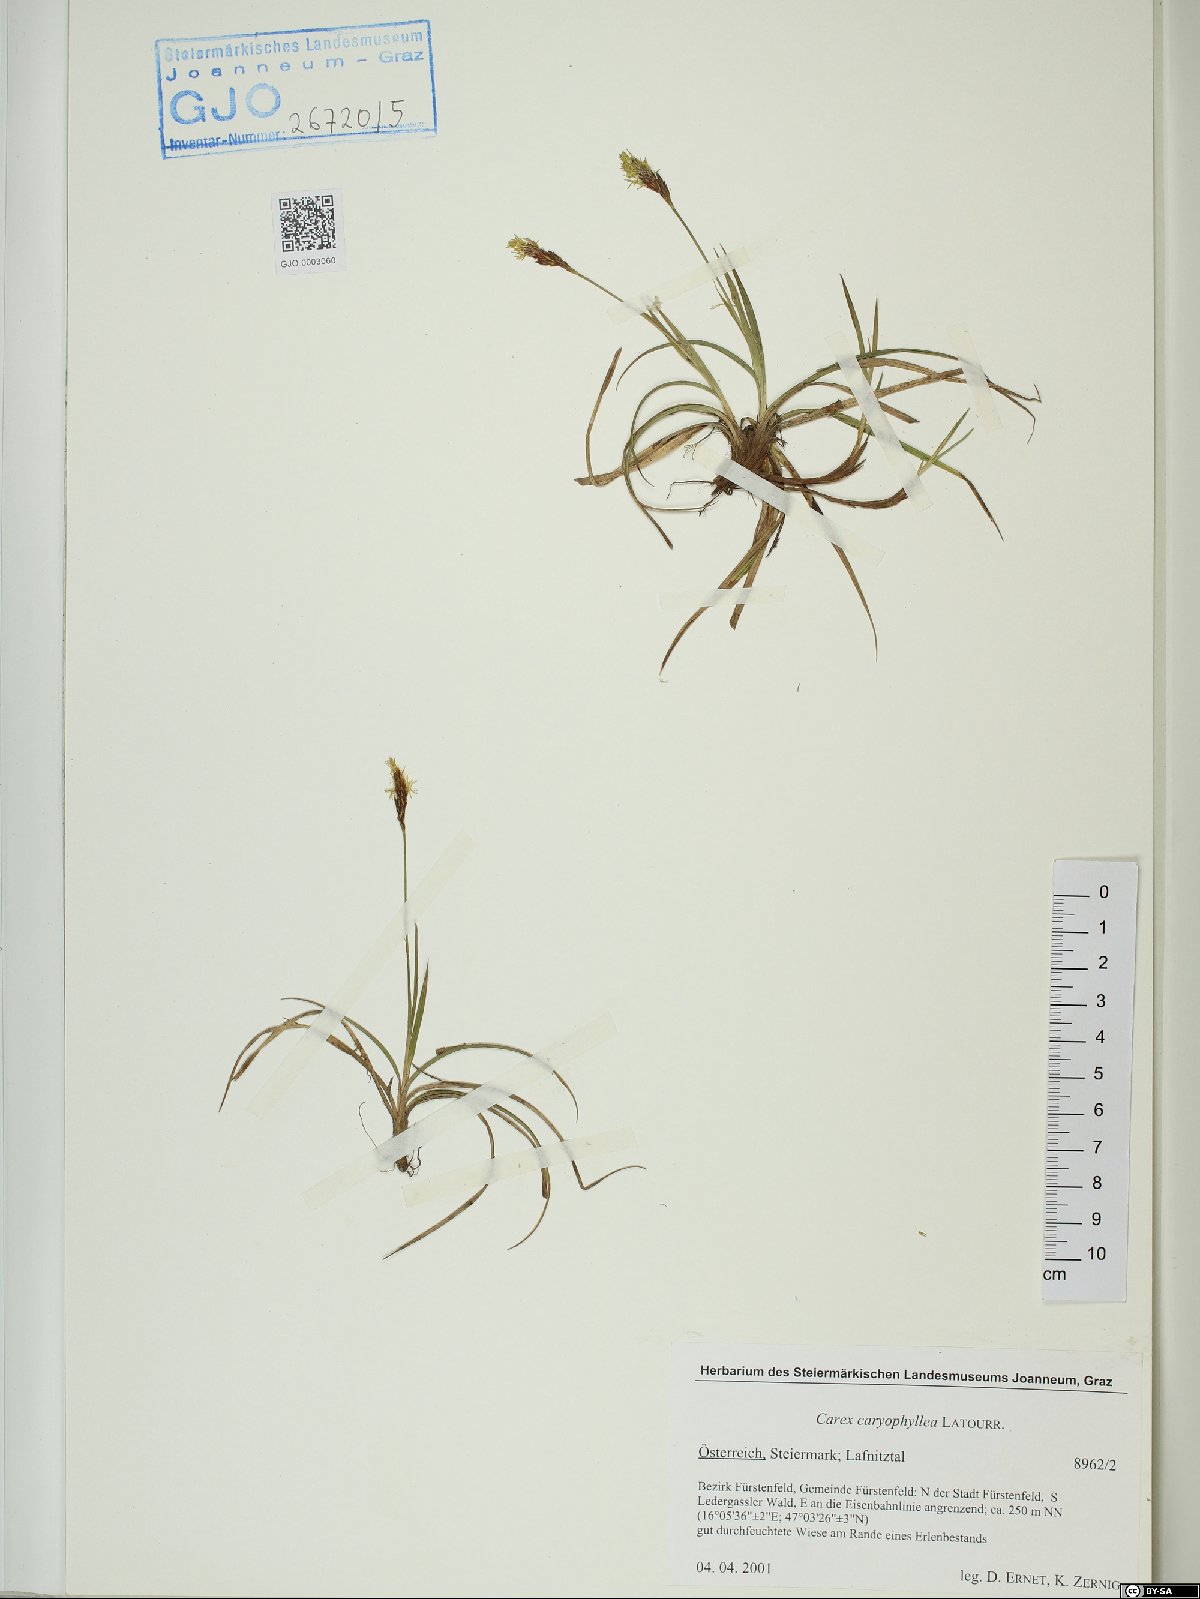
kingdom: Plantae
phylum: Tracheophyta
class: Liliopsida
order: Poales
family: Cyperaceae
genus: Carex
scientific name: Carex caryophyllea
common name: Spring sedge
